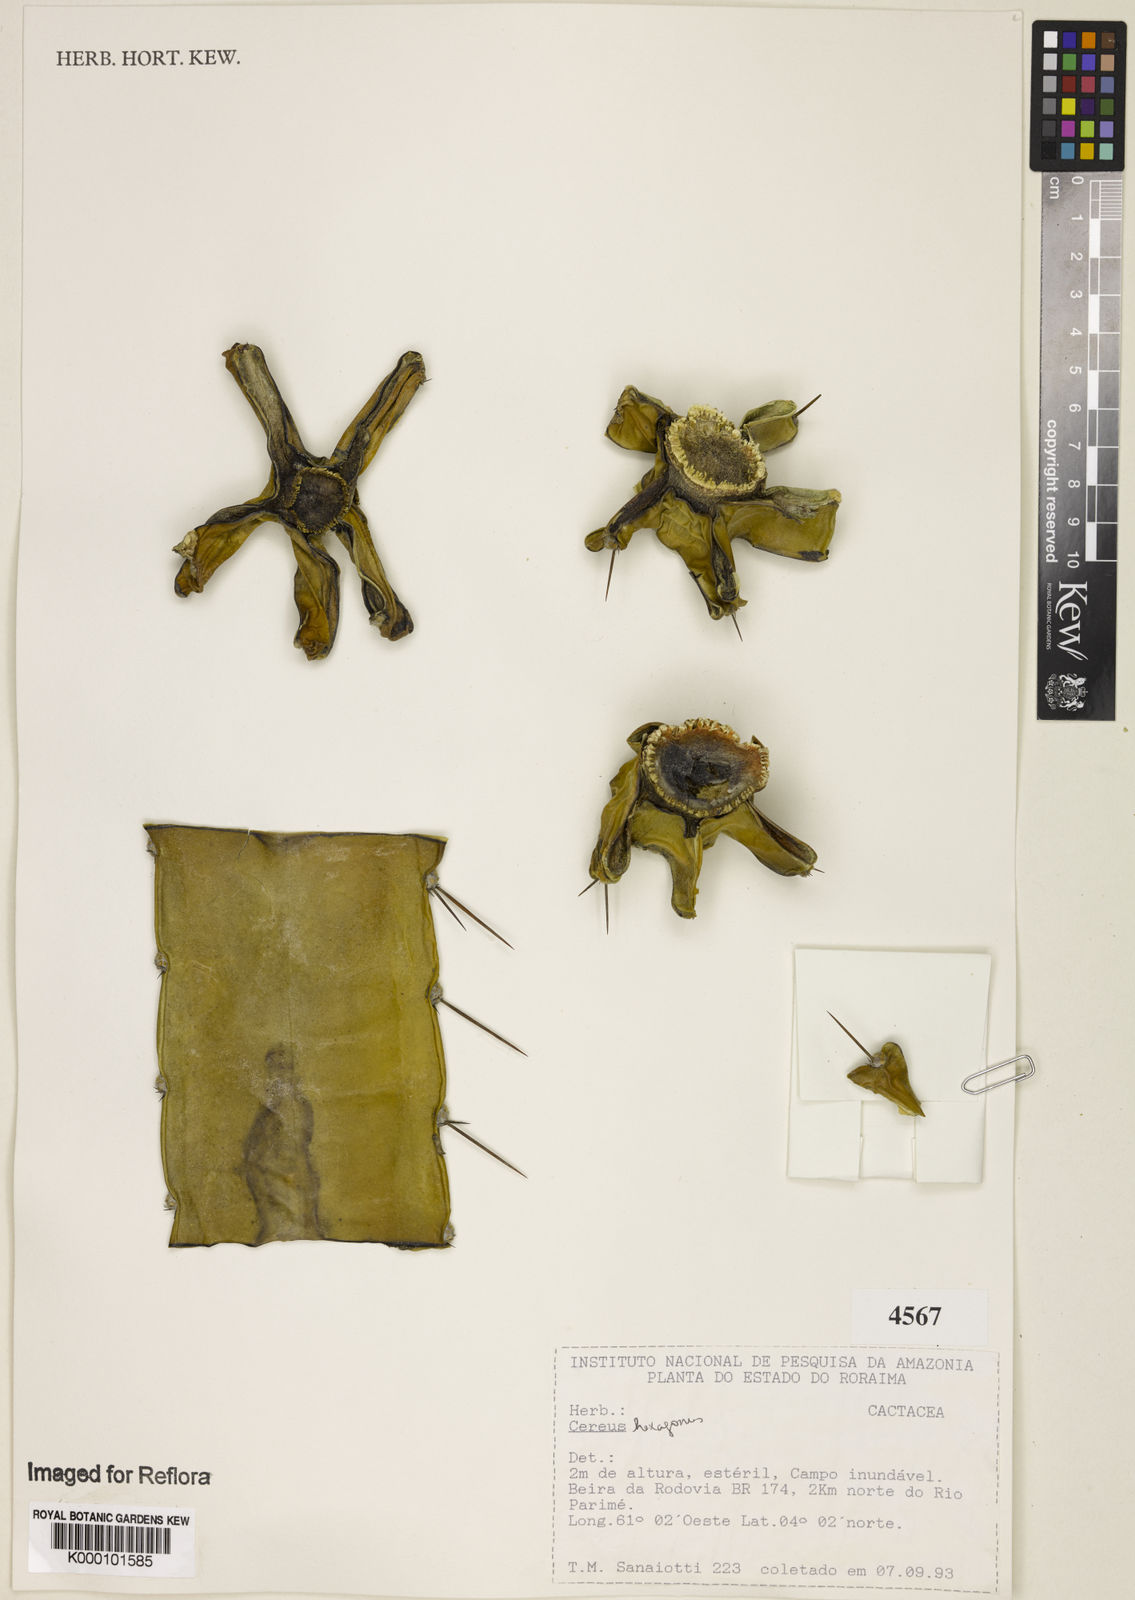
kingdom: Plantae
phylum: Tracheophyta
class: Magnoliopsida
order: Caryophyllales
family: Cactaceae
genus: Cereus
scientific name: Cereus hexagonus
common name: Lady of the night cactus
